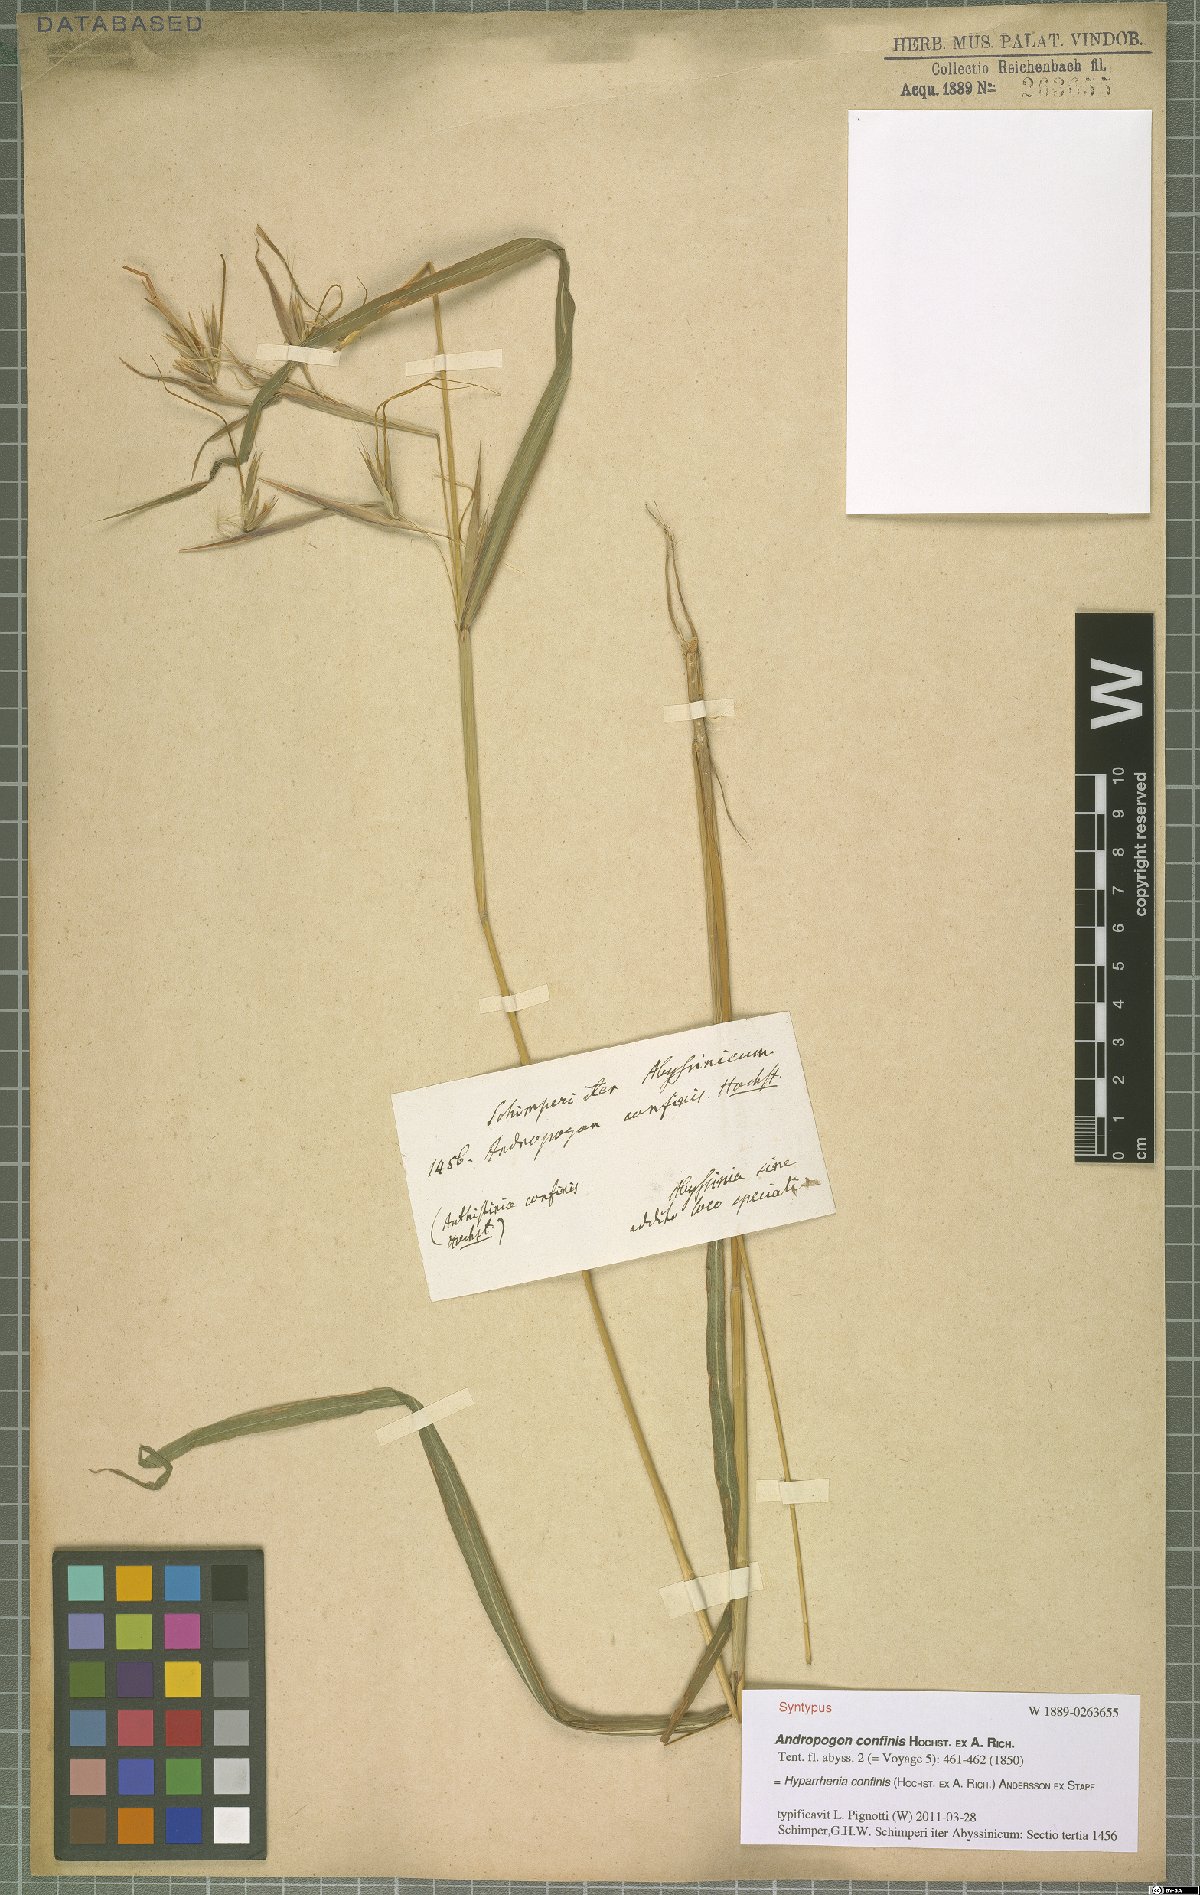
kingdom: Plantae
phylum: Tracheophyta
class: Liliopsida
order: Poales
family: Poaceae
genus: Hyparrhenia
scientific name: Hyparrhenia confinis
